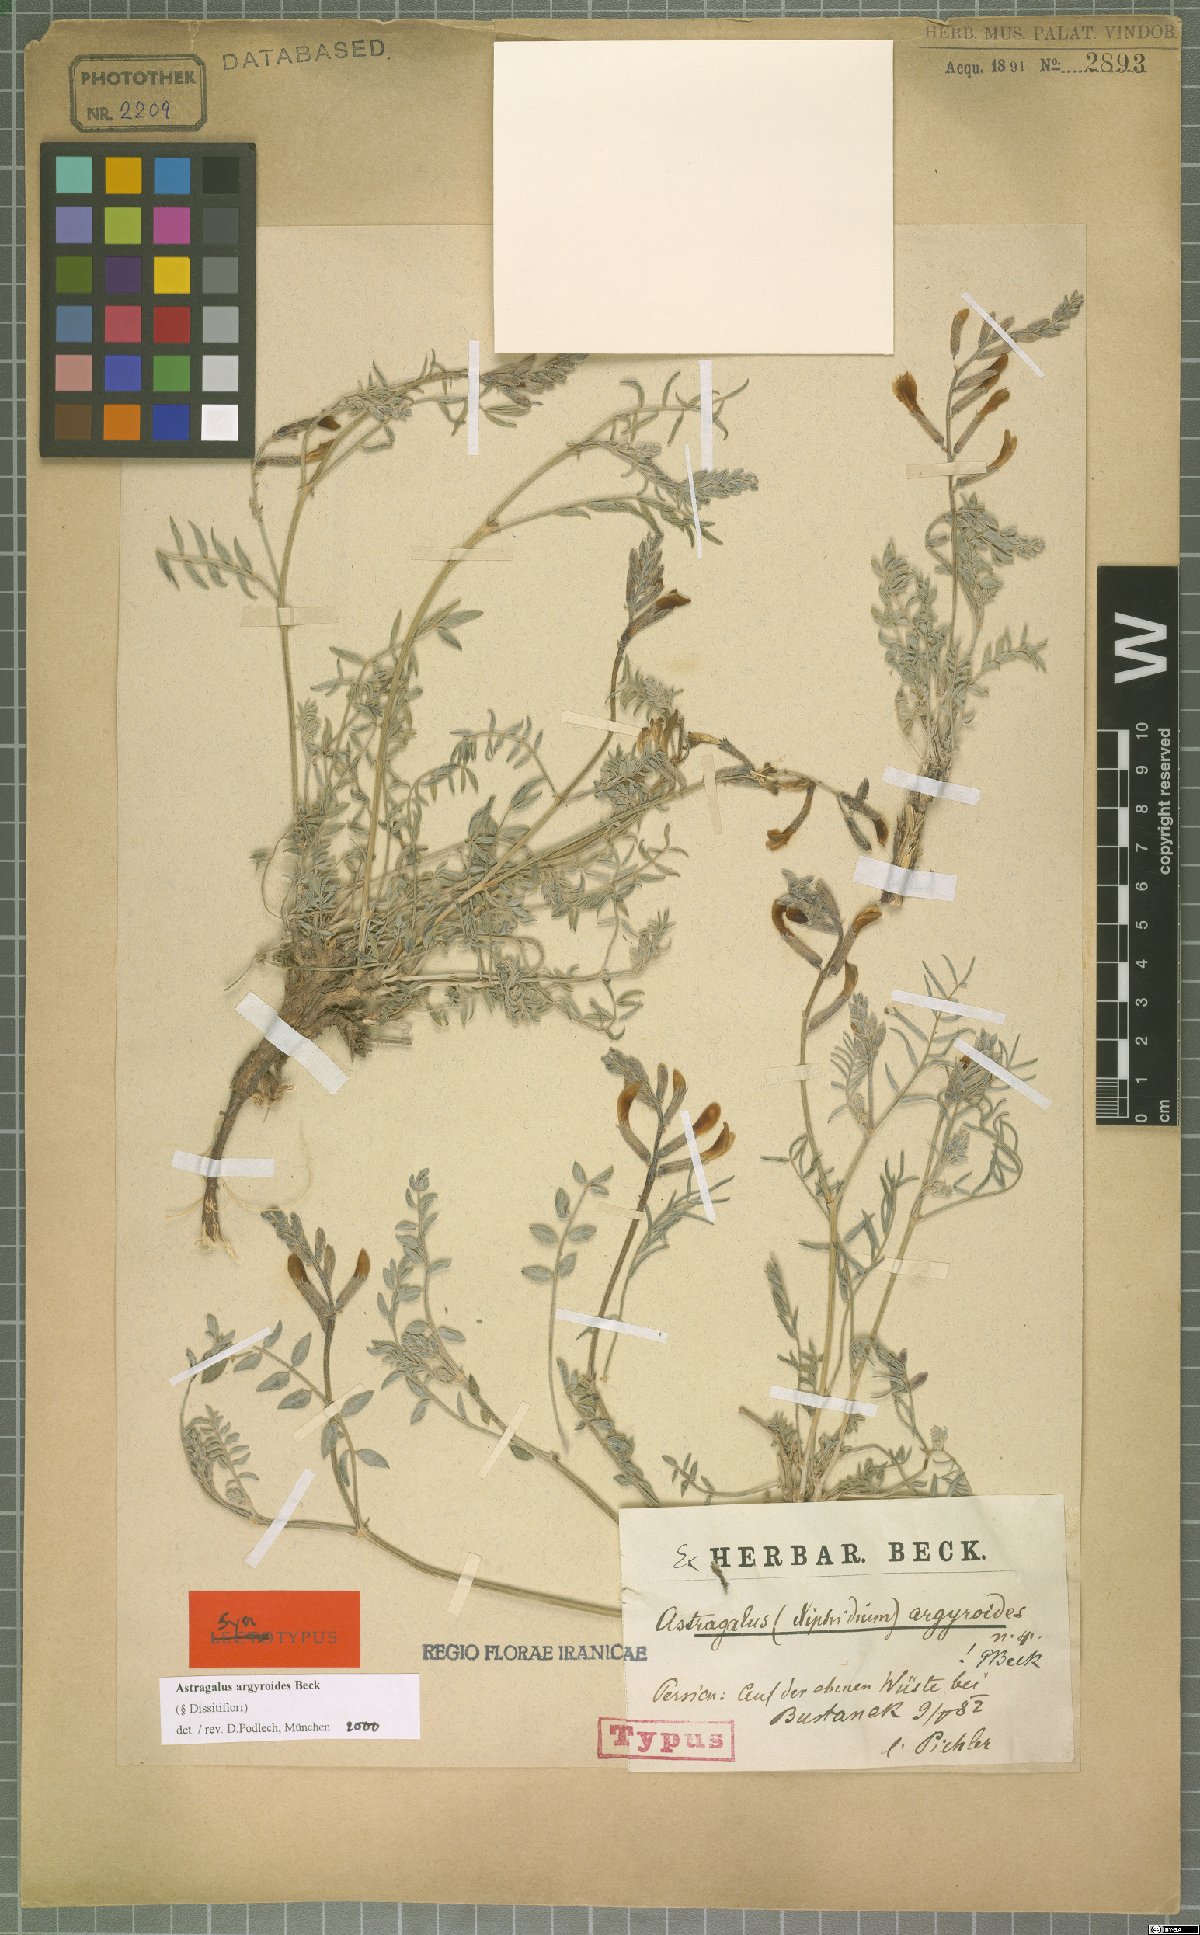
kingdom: Plantae
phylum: Tracheophyta
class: Magnoliopsida
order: Fabales
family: Fabaceae
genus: Astragalus
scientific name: Astragalus argyroides
